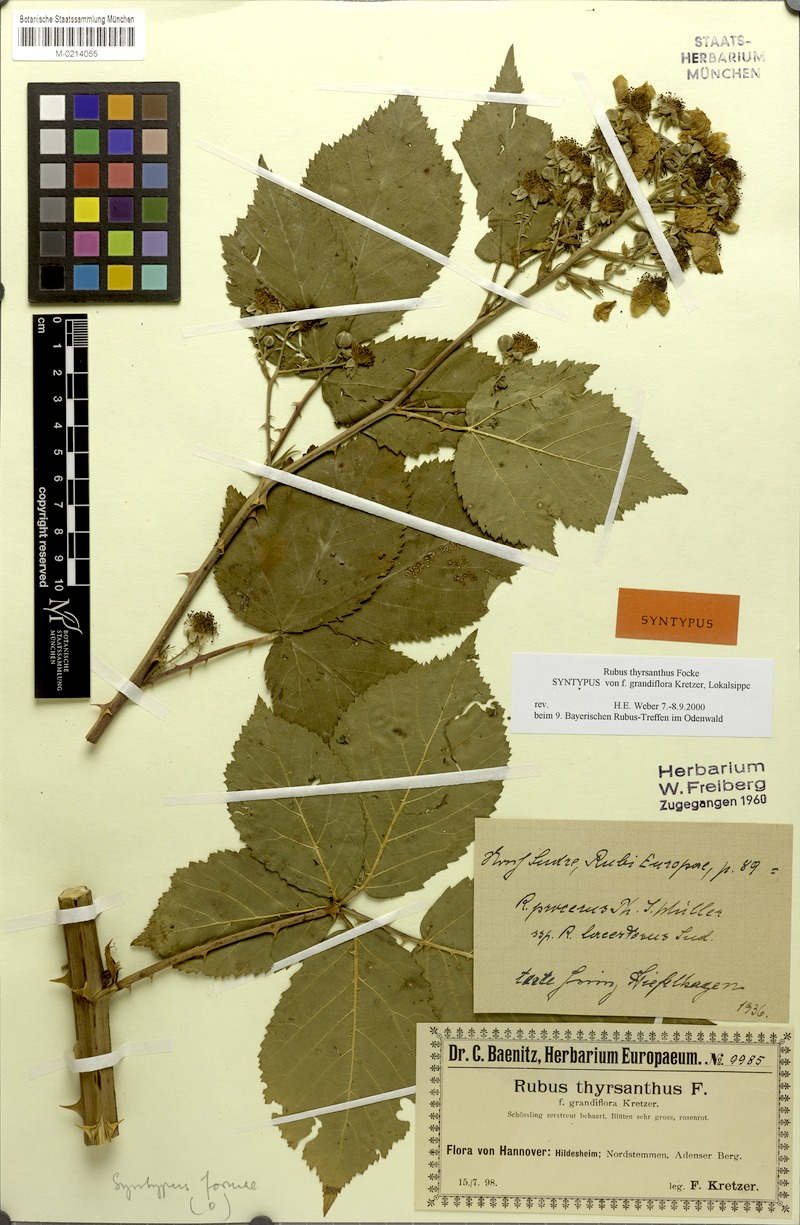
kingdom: Plantae
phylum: Tracheophyta
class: Magnoliopsida
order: Rosales
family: Rosaceae
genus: Rubus
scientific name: Rubus grabowskii
